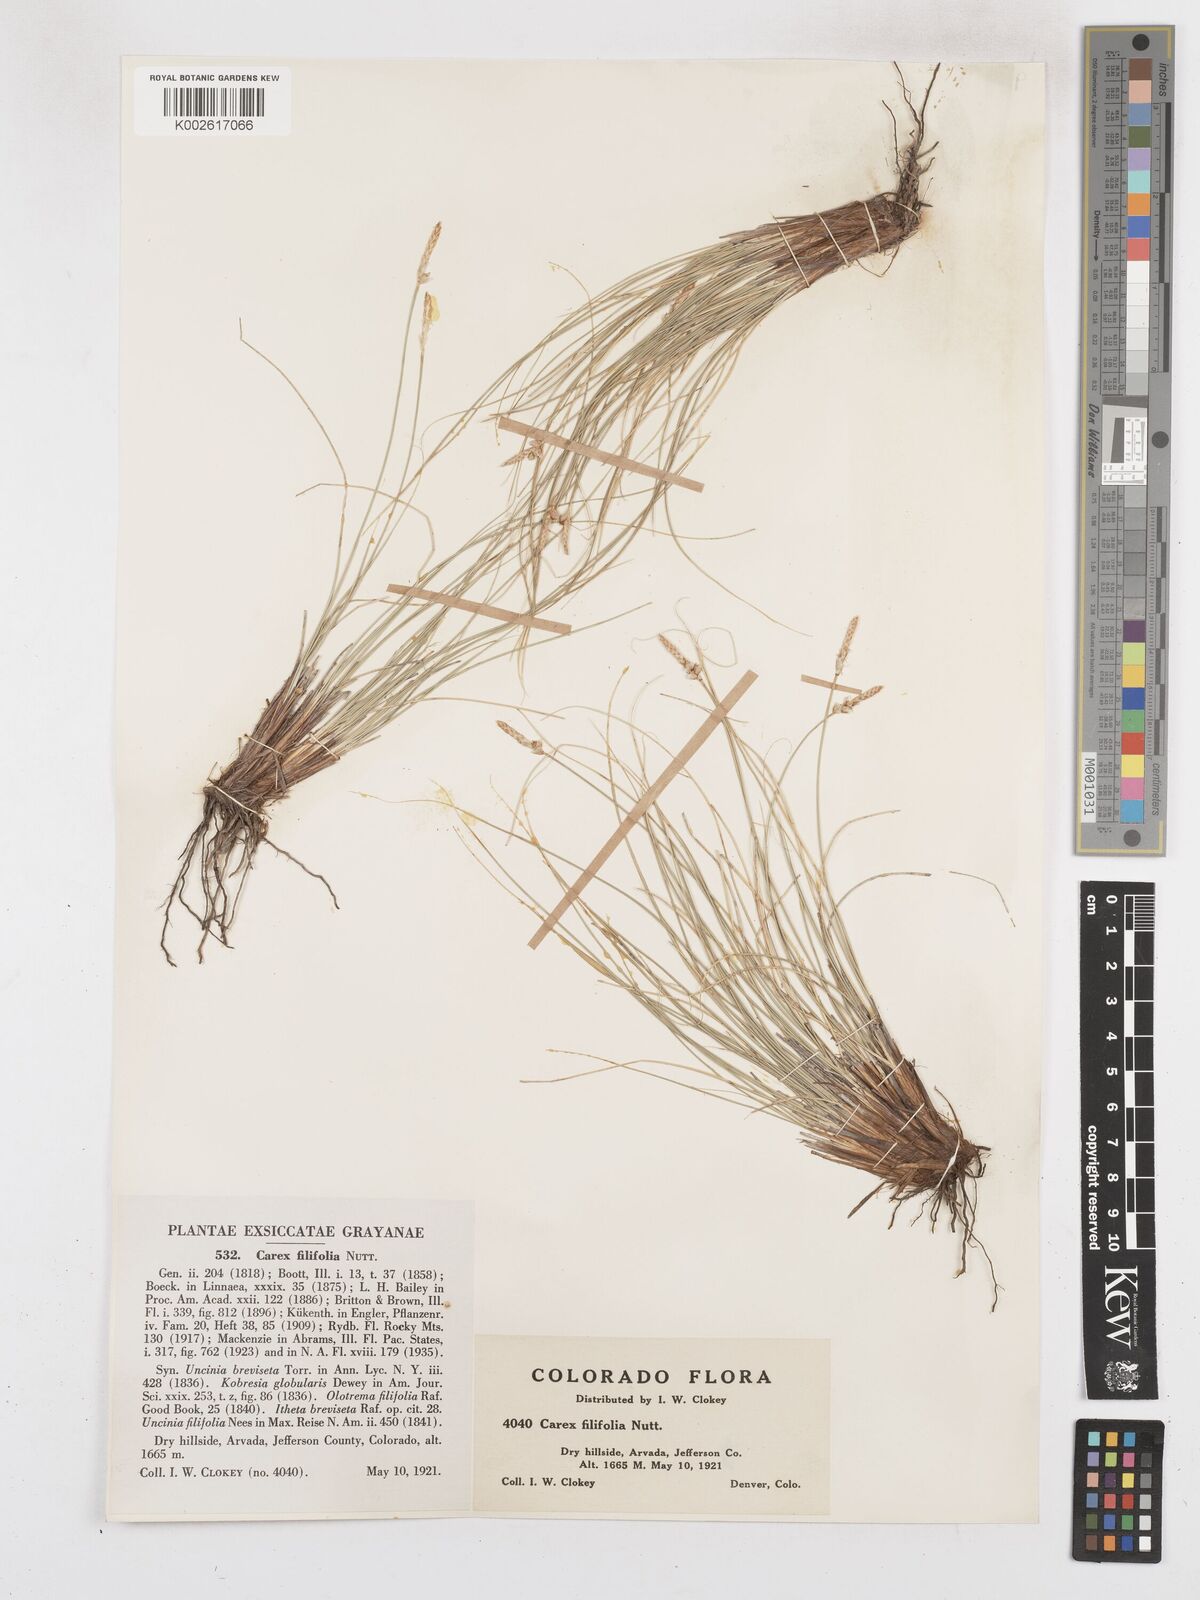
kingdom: Plantae
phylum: Tracheophyta
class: Liliopsida
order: Poales
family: Cyperaceae
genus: Carex
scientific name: Carex filifolia
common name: Threadleaf sedge
